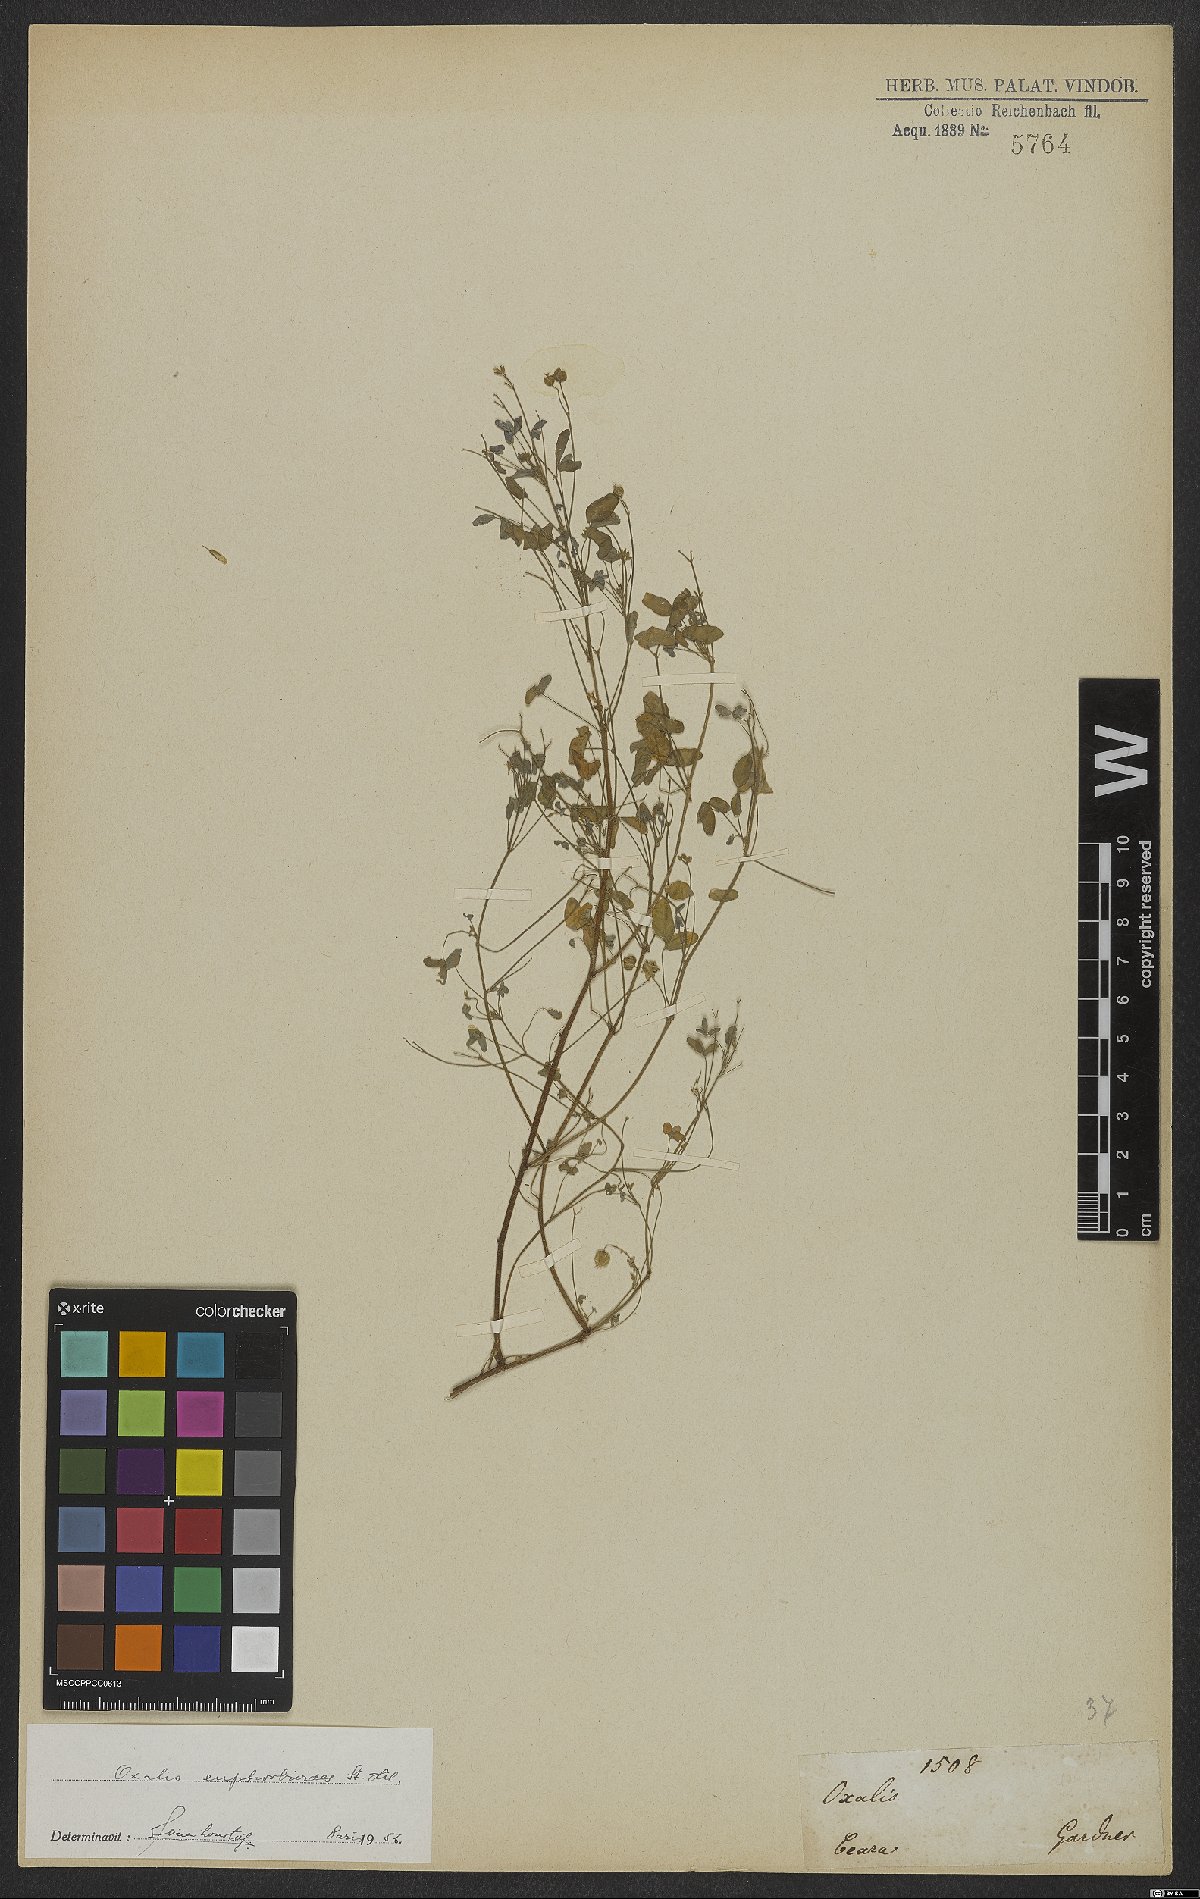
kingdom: Plantae
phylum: Tracheophyta
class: Magnoliopsida
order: Oxalidales
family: Oxalidaceae
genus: Oxalis
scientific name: Oxalis divaricata
